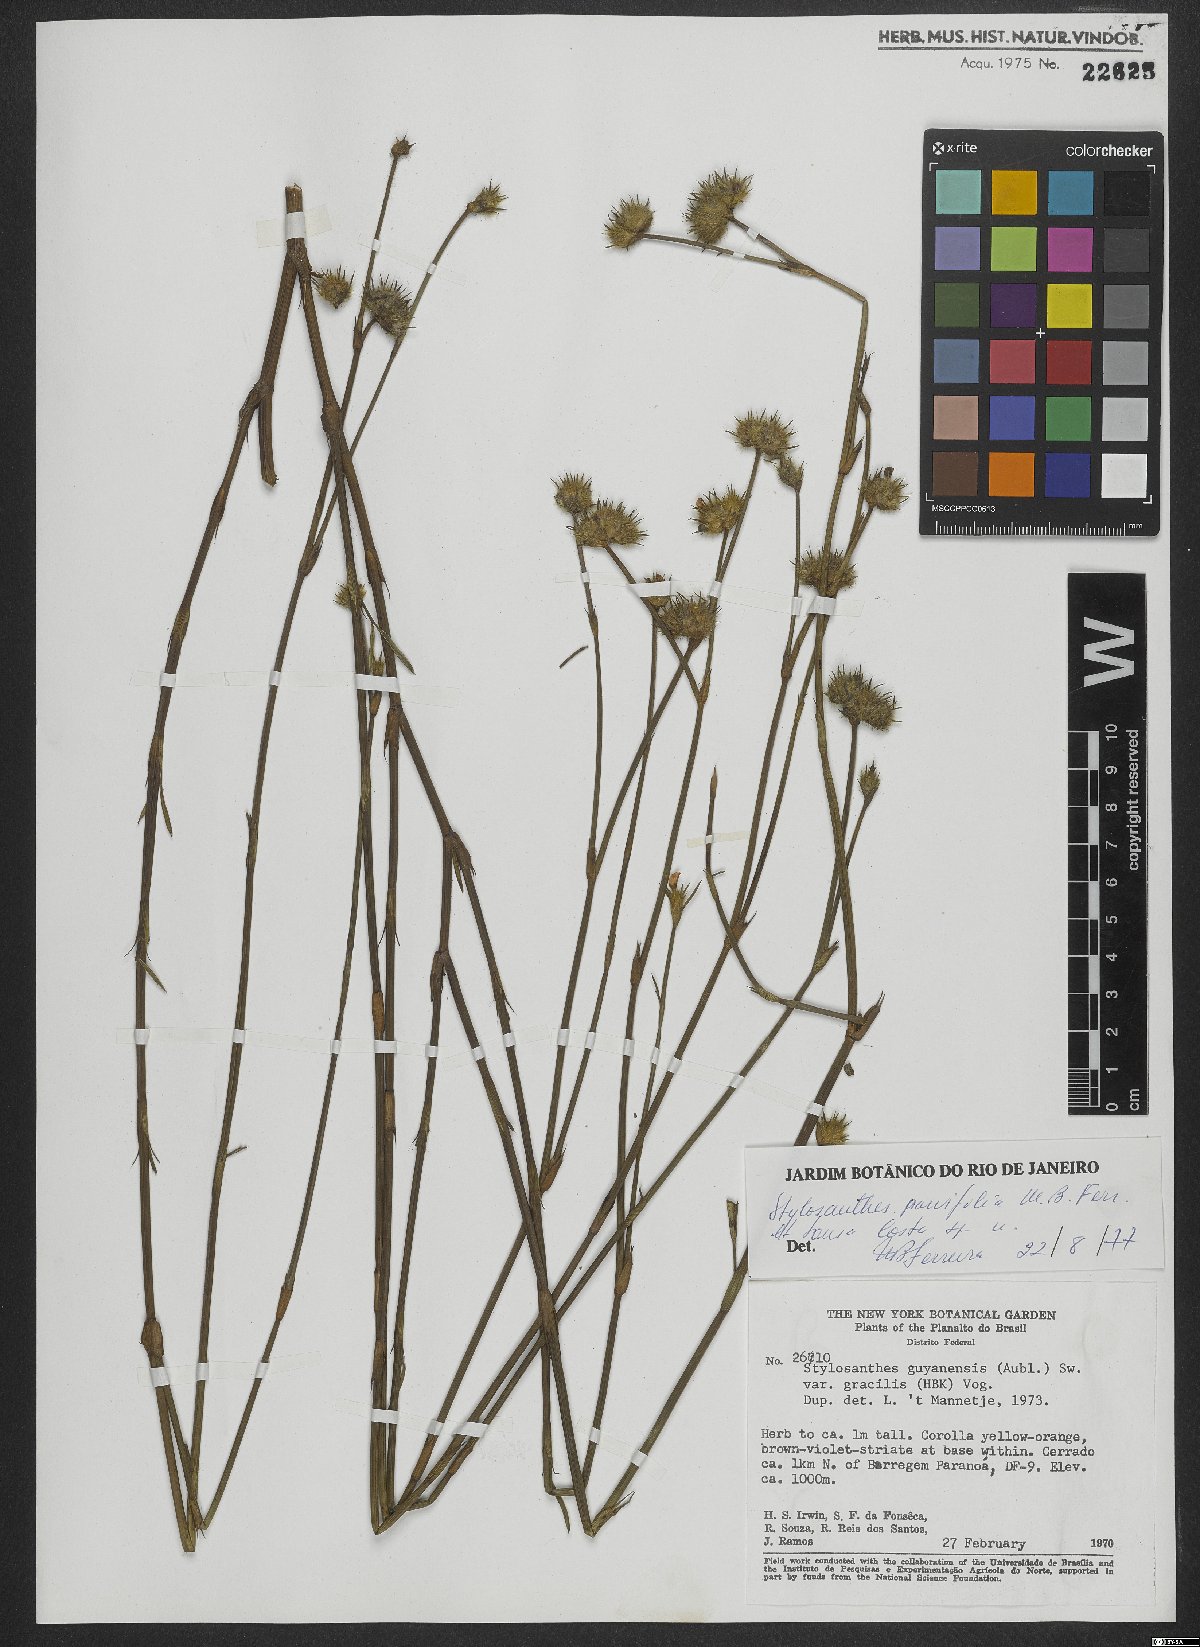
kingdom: Plantae
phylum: Tracheophyta
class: Magnoliopsida
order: Fabales
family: Fabaceae
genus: Stylosanthes
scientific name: Stylosanthes
